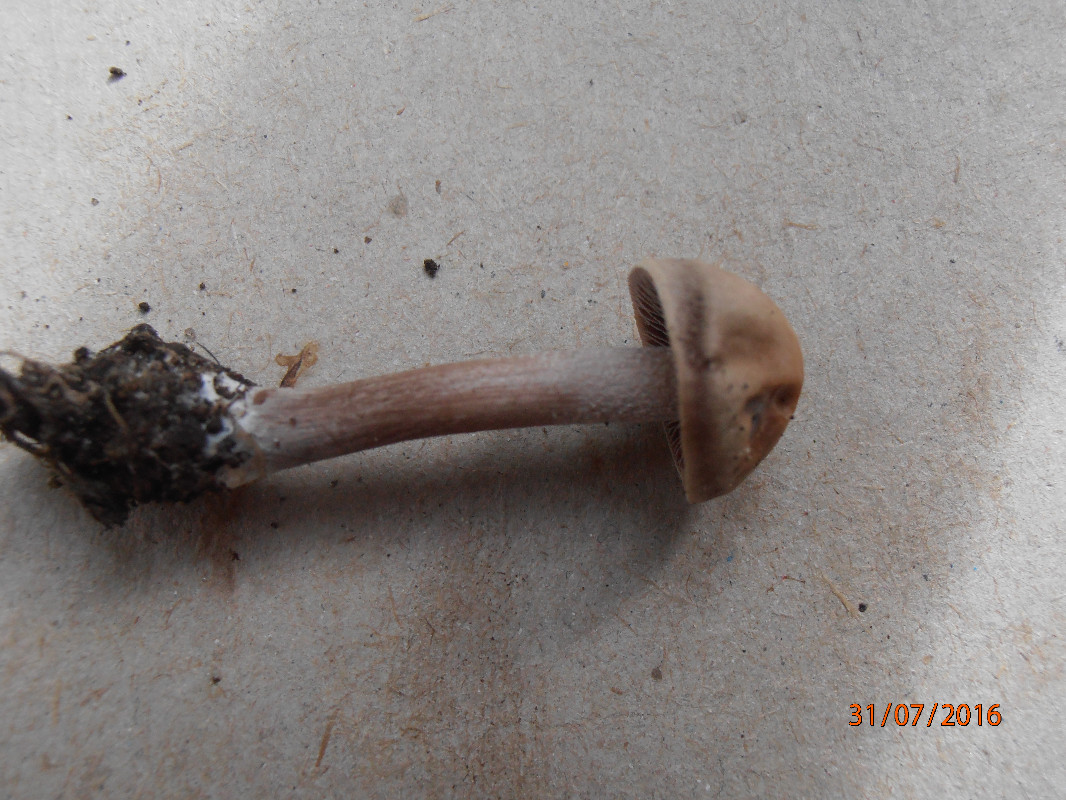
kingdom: Fungi
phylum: Basidiomycota
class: Agaricomycetes
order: Agaricales
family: Bolbitiaceae
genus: Panaeolus
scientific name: Panaeolus cinctulus
